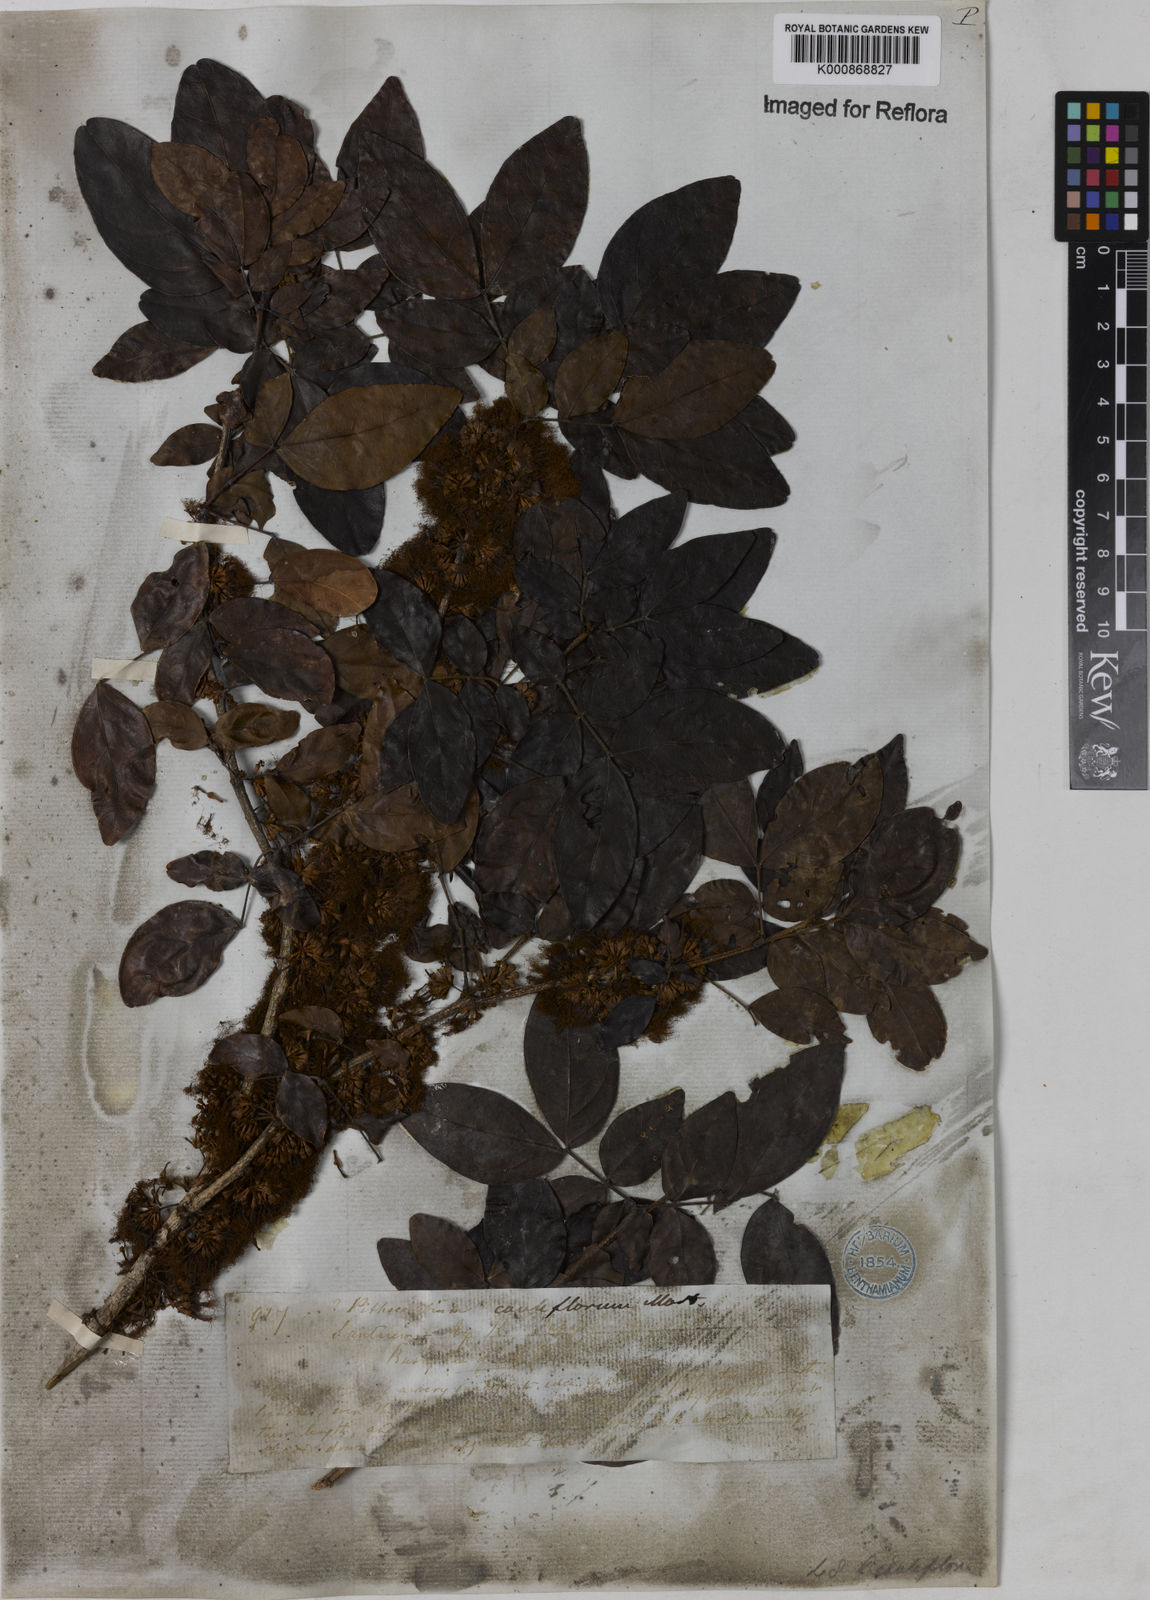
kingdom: Plantae
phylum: Tracheophyta
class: Magnoliopsida
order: Fabales
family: Fabaceae
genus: Zygia
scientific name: Zygia
